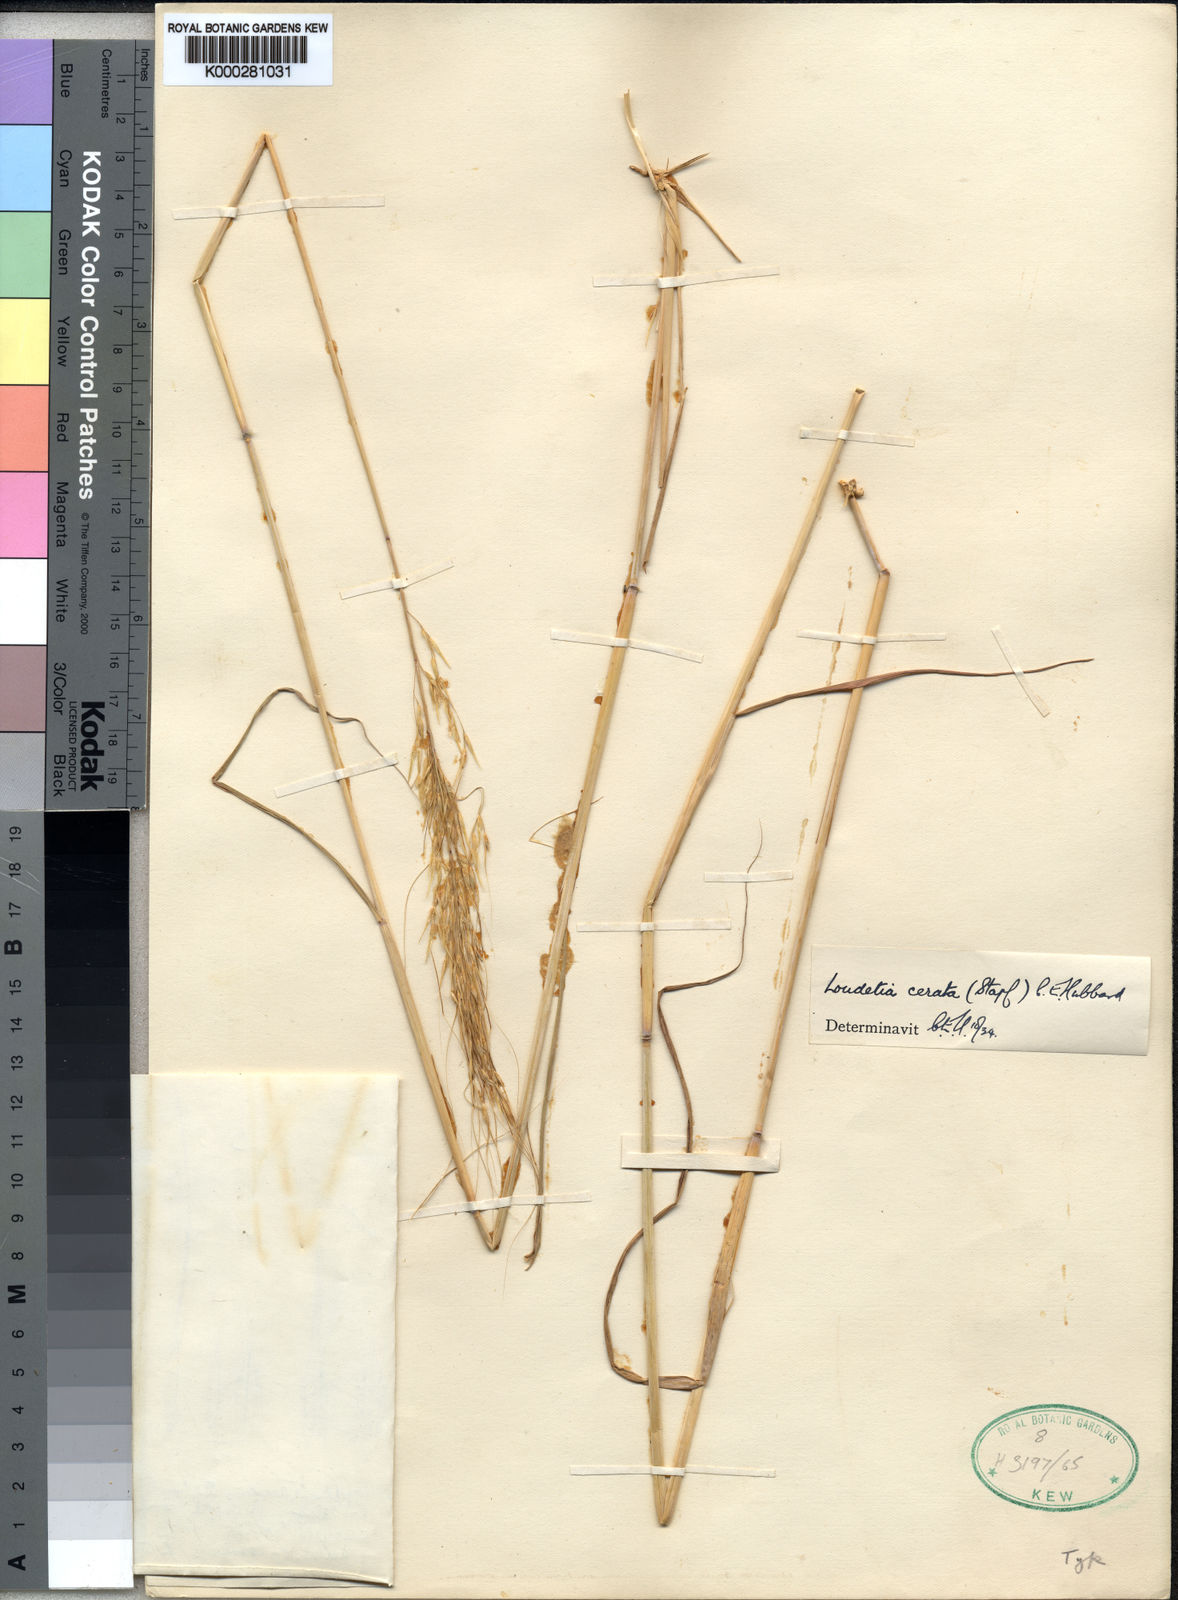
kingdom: Plantae
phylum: Tracheophyta
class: Liliopsida
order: Poales
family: Poaceae
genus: Loudetia
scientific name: Loudetia cerata
